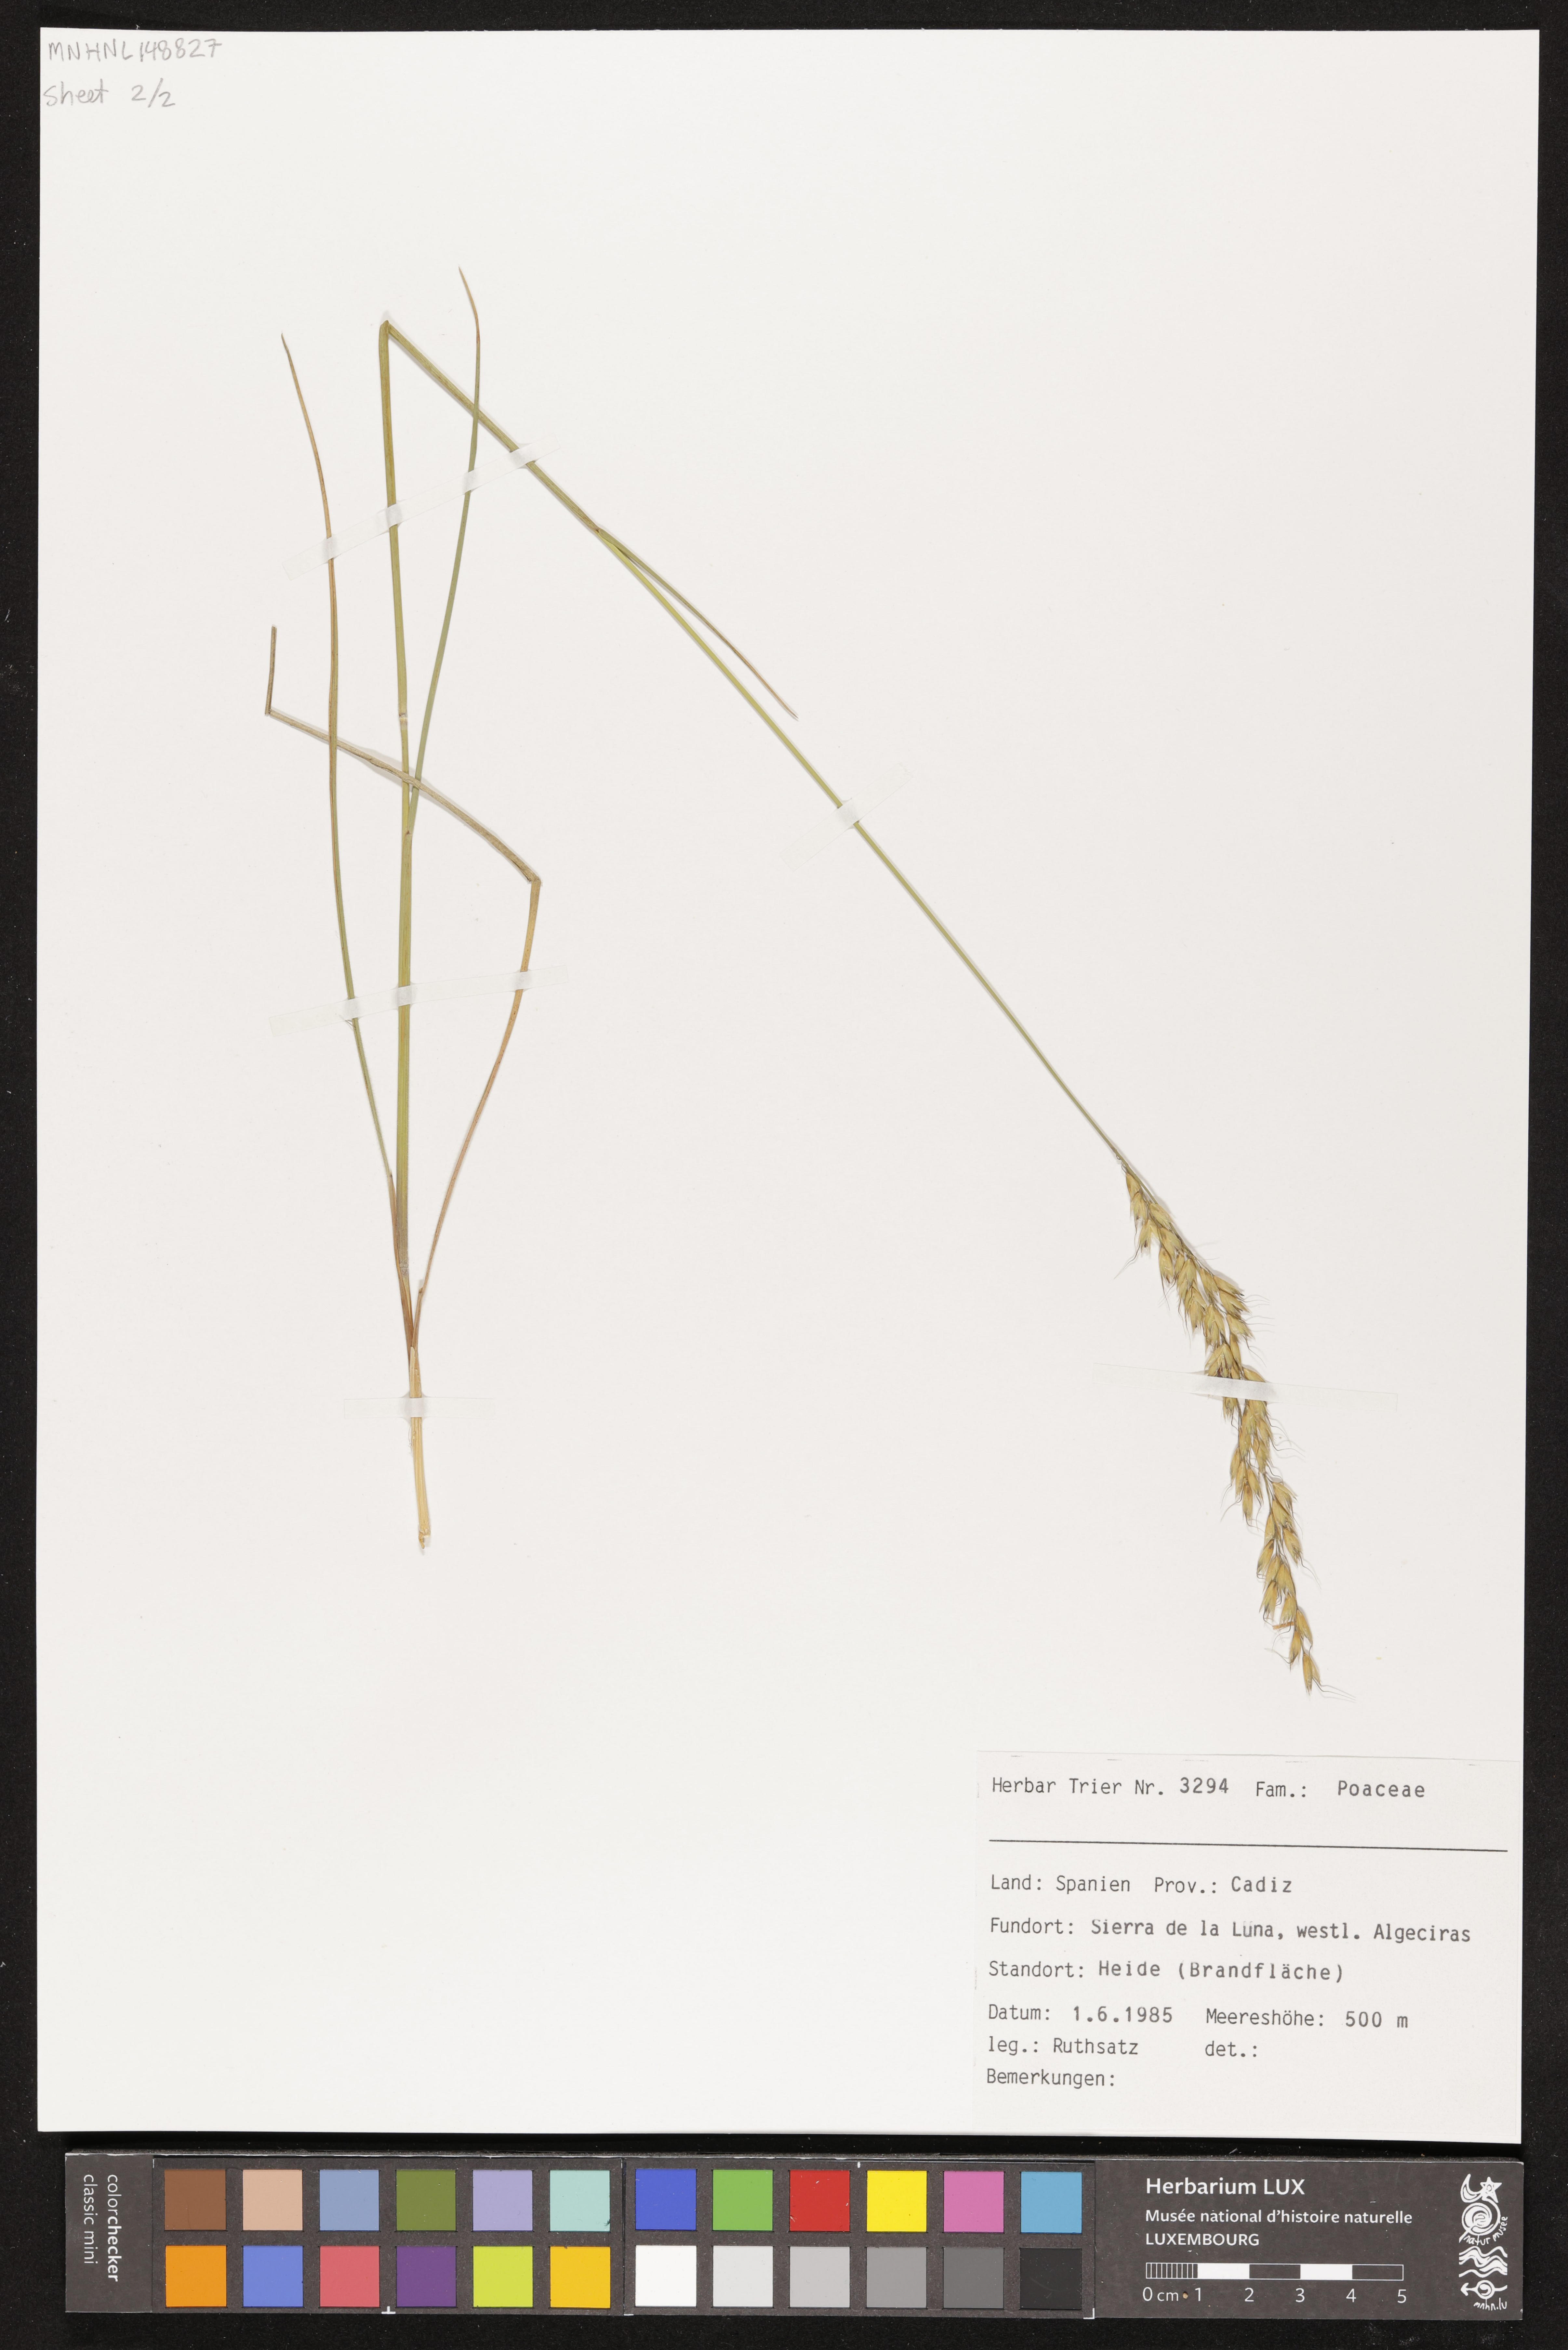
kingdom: Plantae
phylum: Tracheophyta
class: Liliopsida
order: Poales
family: Poaceae
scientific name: Poaceae
